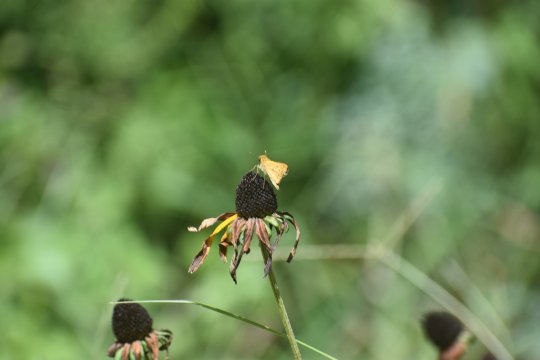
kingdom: Animalia
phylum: Arthropoda
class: Insecta
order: Lepidoptera
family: Hesperiidae
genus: Hylephila
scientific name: Hylephila phyleus
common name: Fiery Skipper
